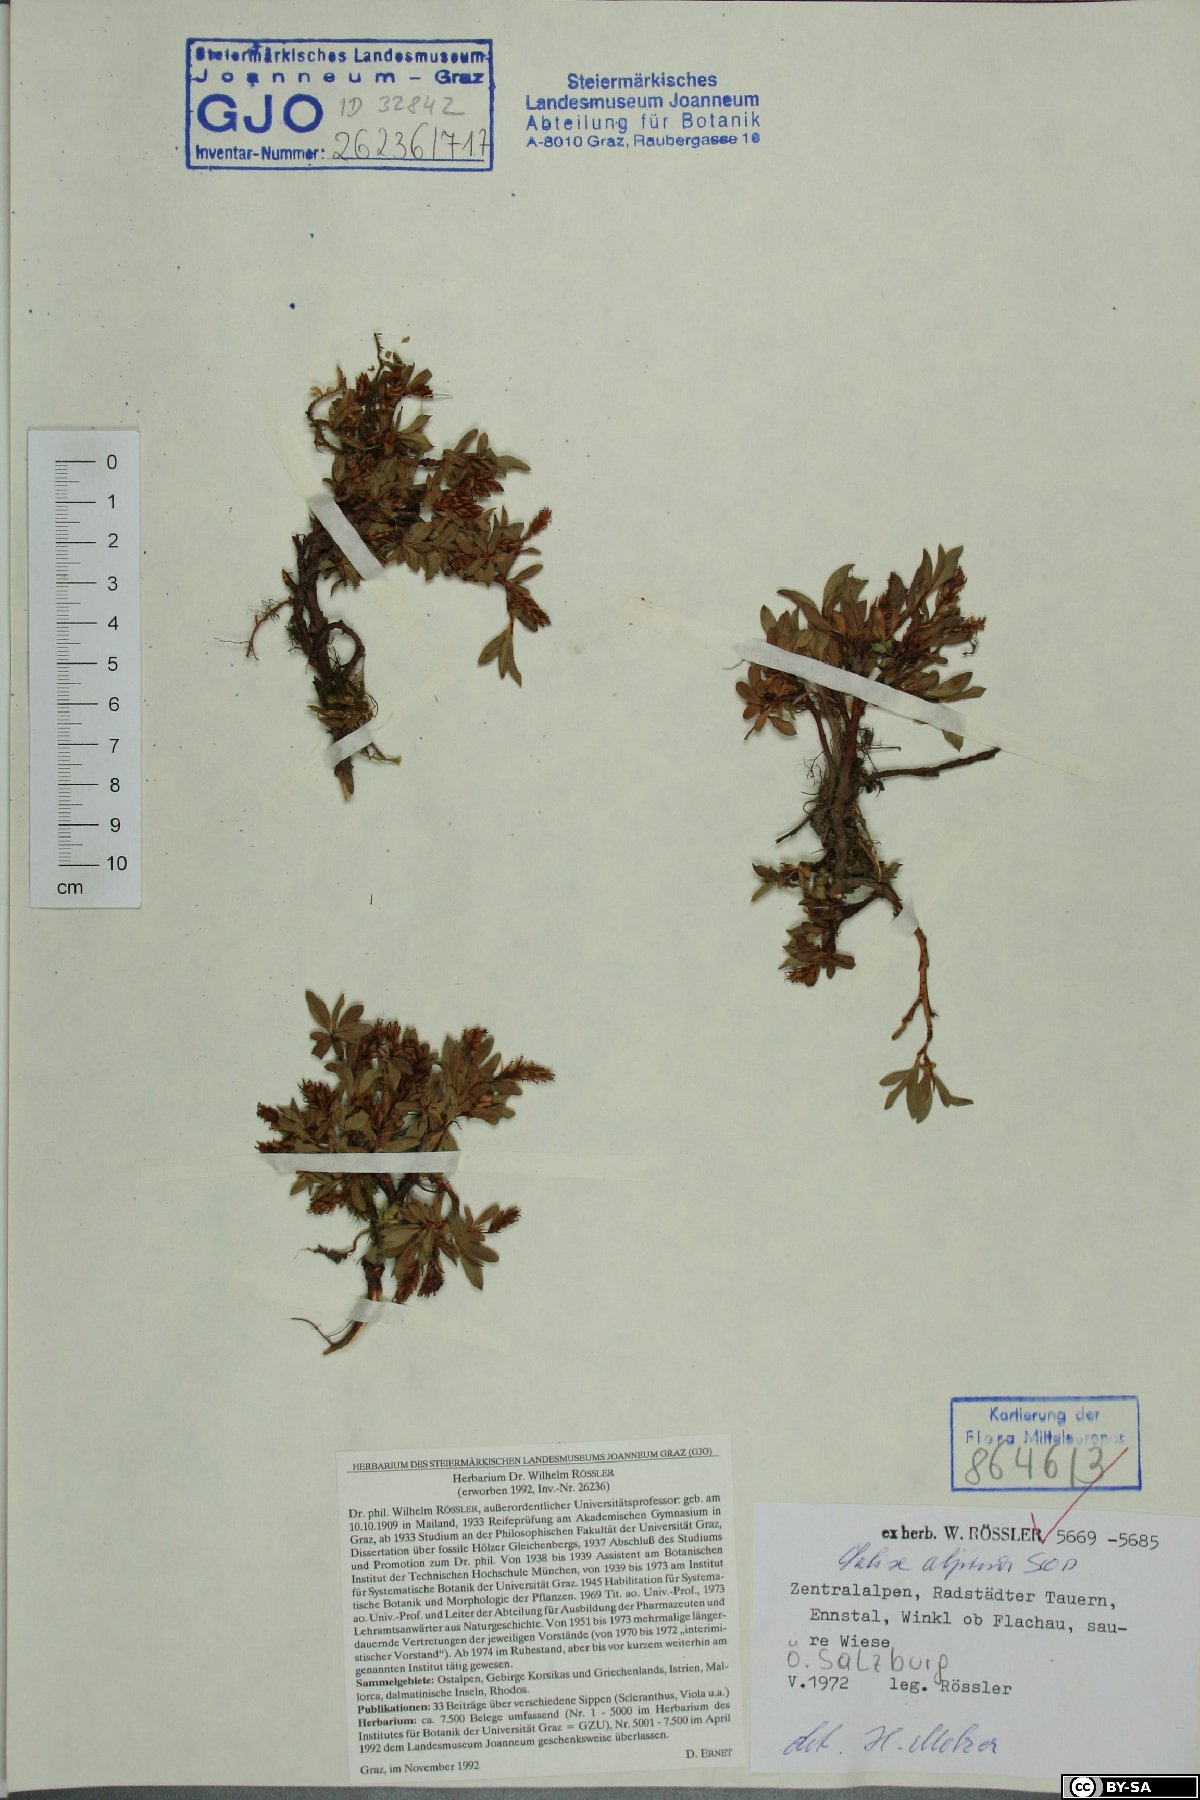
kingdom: Plantae
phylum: Tracheophyta
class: Magnoliopsida
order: Malpighiales
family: Salicaceae
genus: Salix
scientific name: Salix alpina
